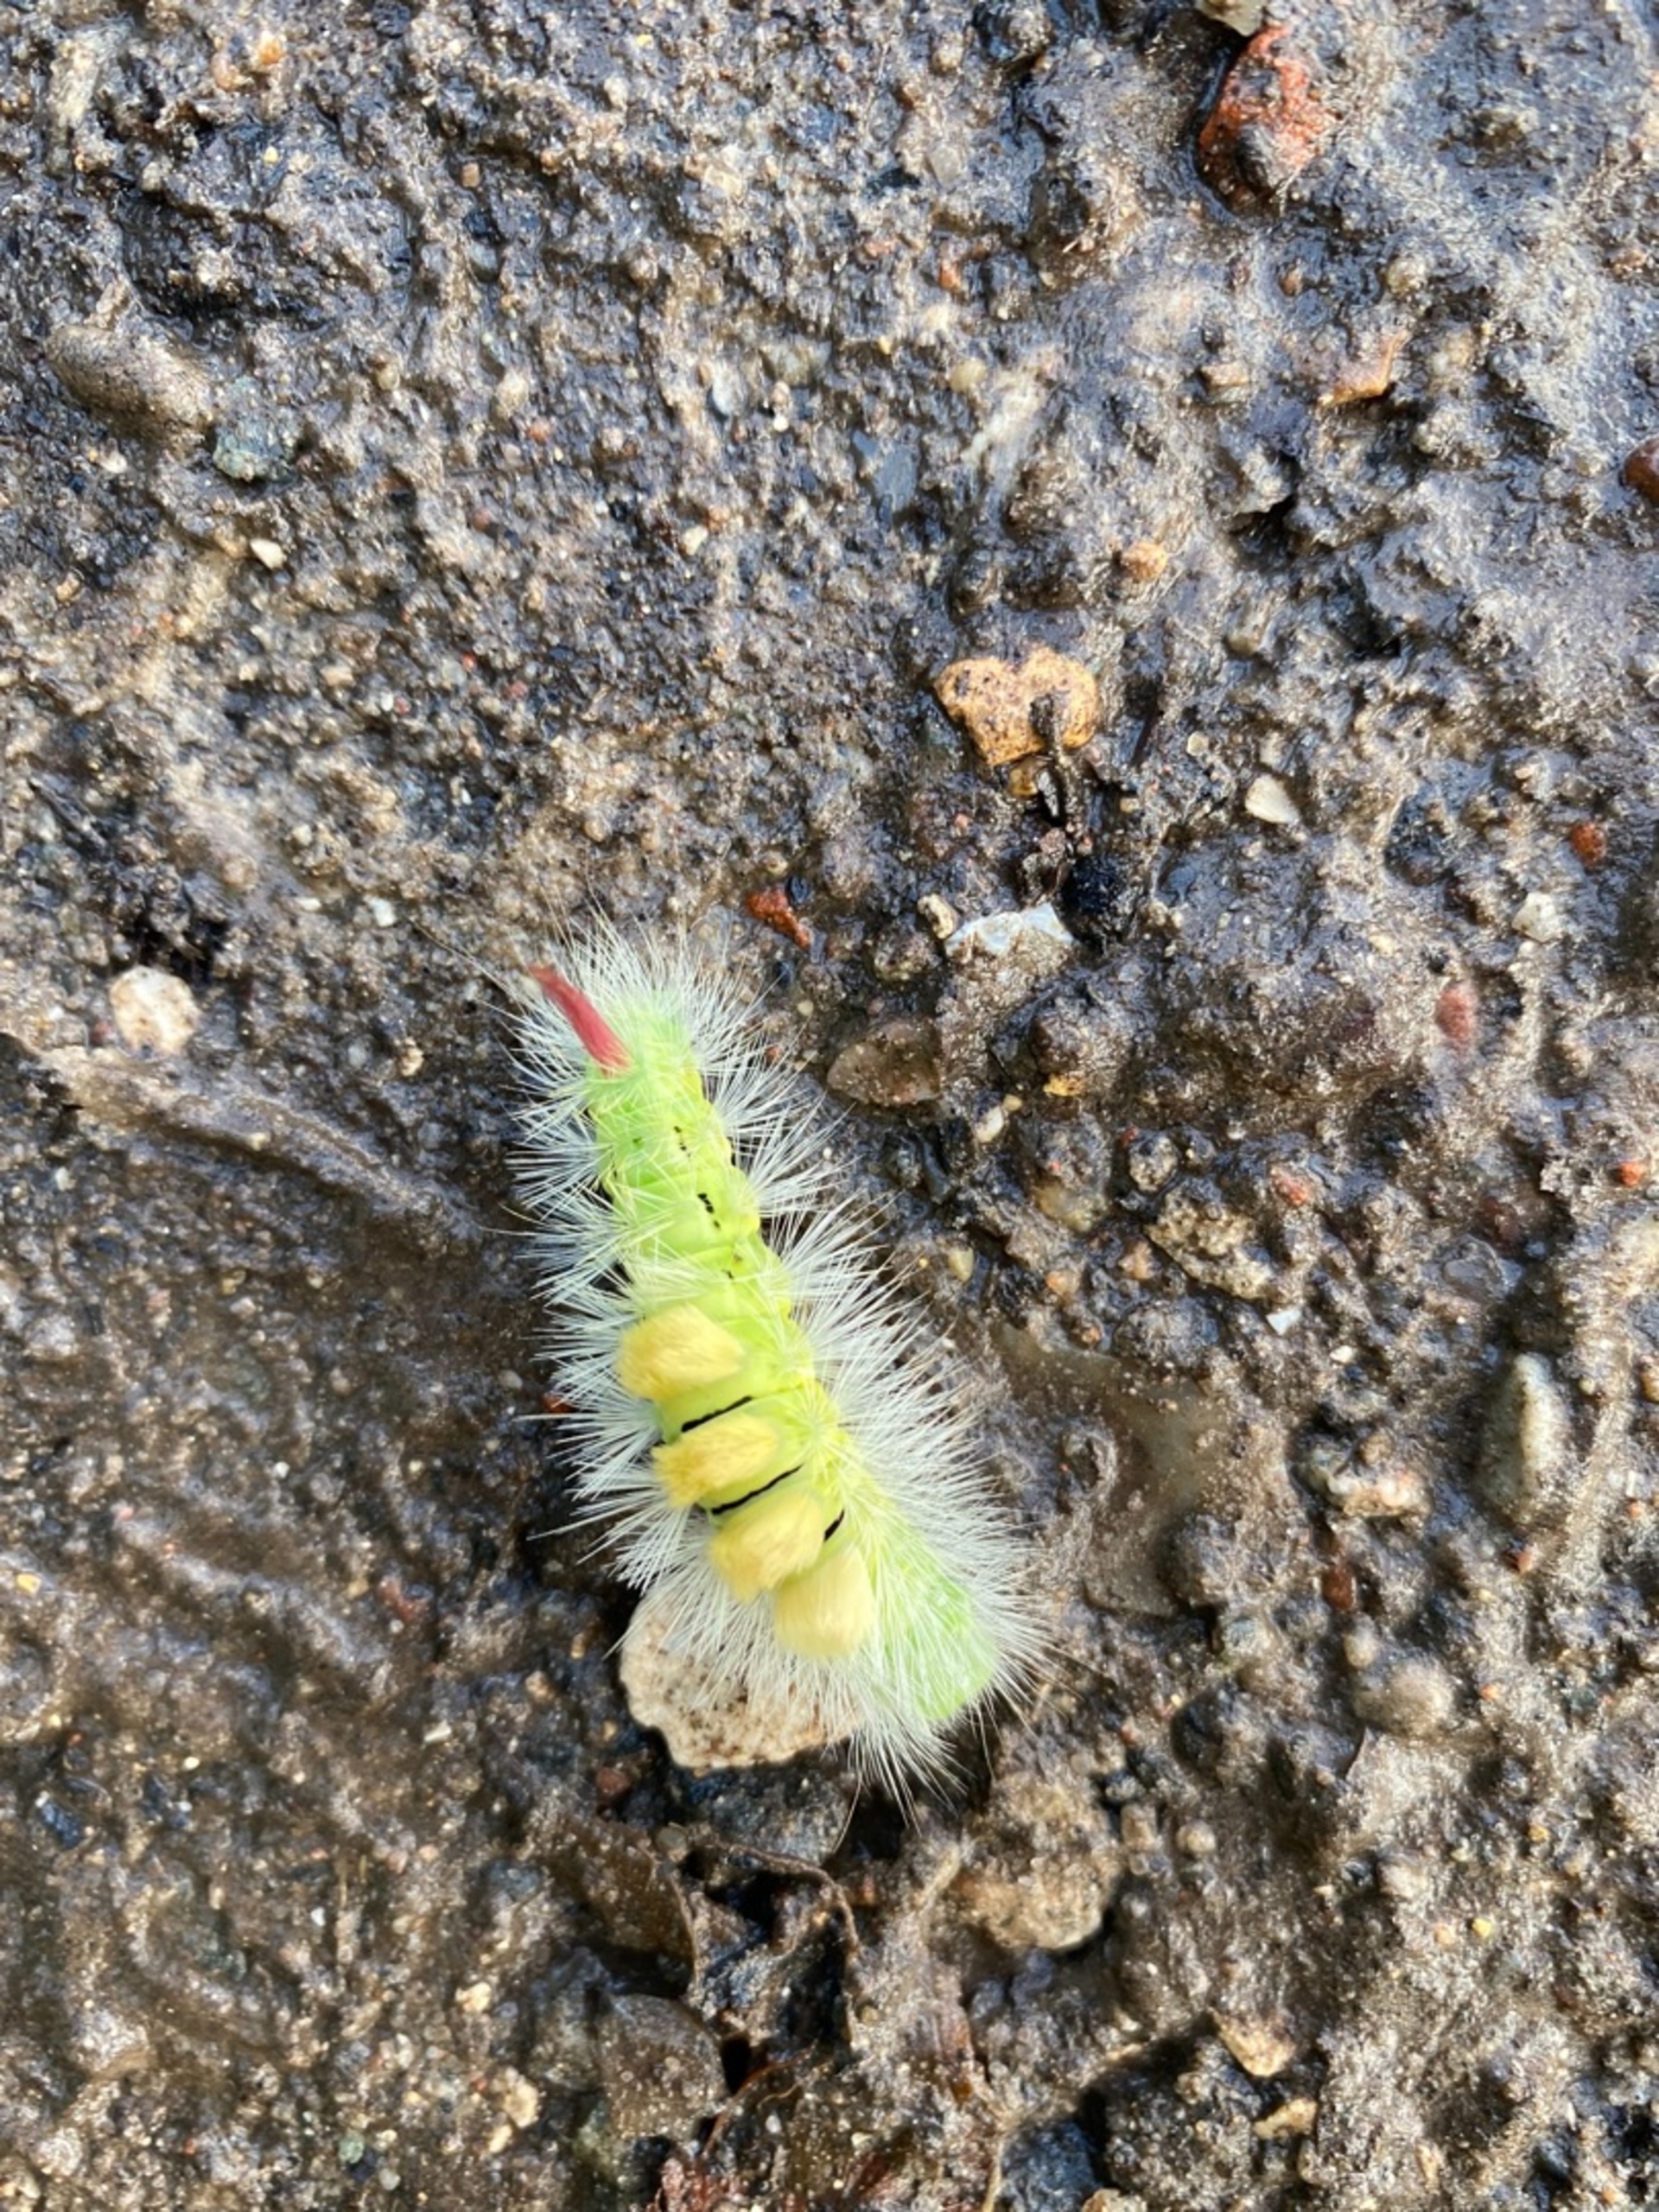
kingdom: Animalia
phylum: Arthropoda
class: Insecta
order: Lepidoptera
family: Erebidae
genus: Calliteara
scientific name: Calliteara pudibunda
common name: Bøgenonne
